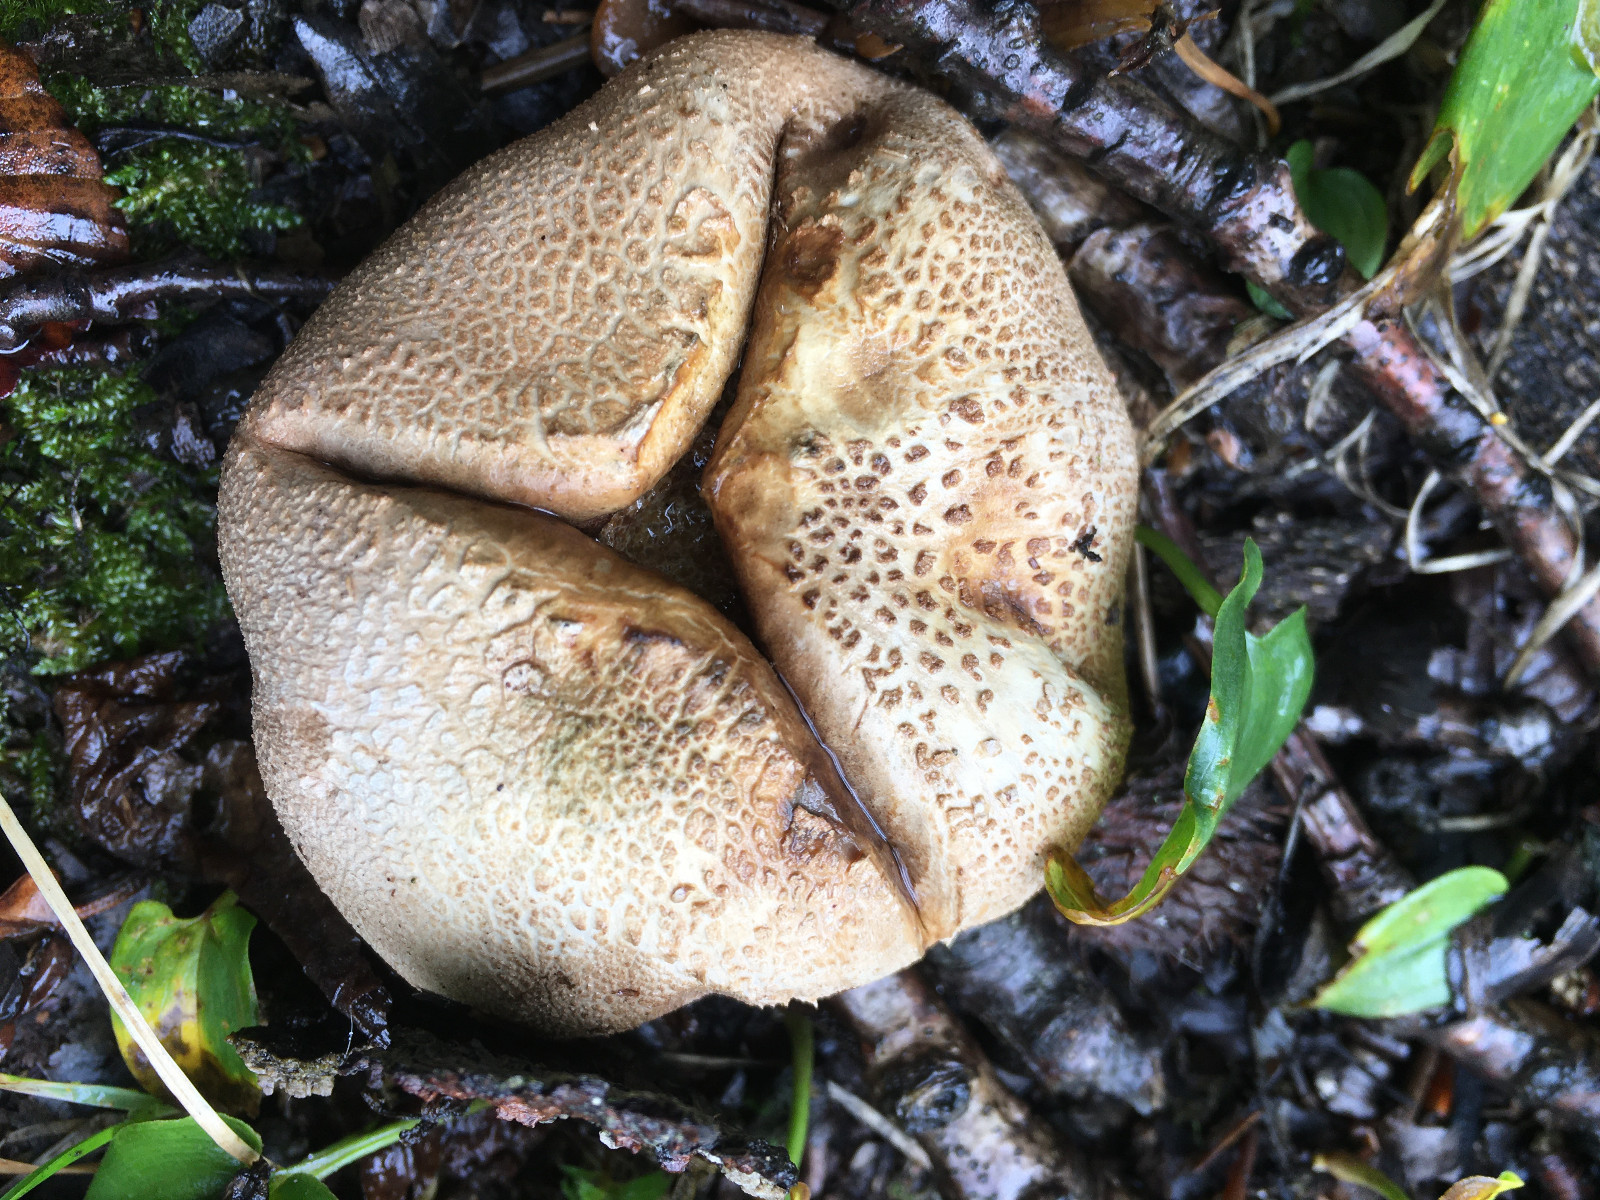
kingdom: Fungi
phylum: Basidiomycota
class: Agaricomycetes
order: Boletales
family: Sclerodermataceae
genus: Scleroderma
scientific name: Scleroderma citrinum
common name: almindelig bruskbold
